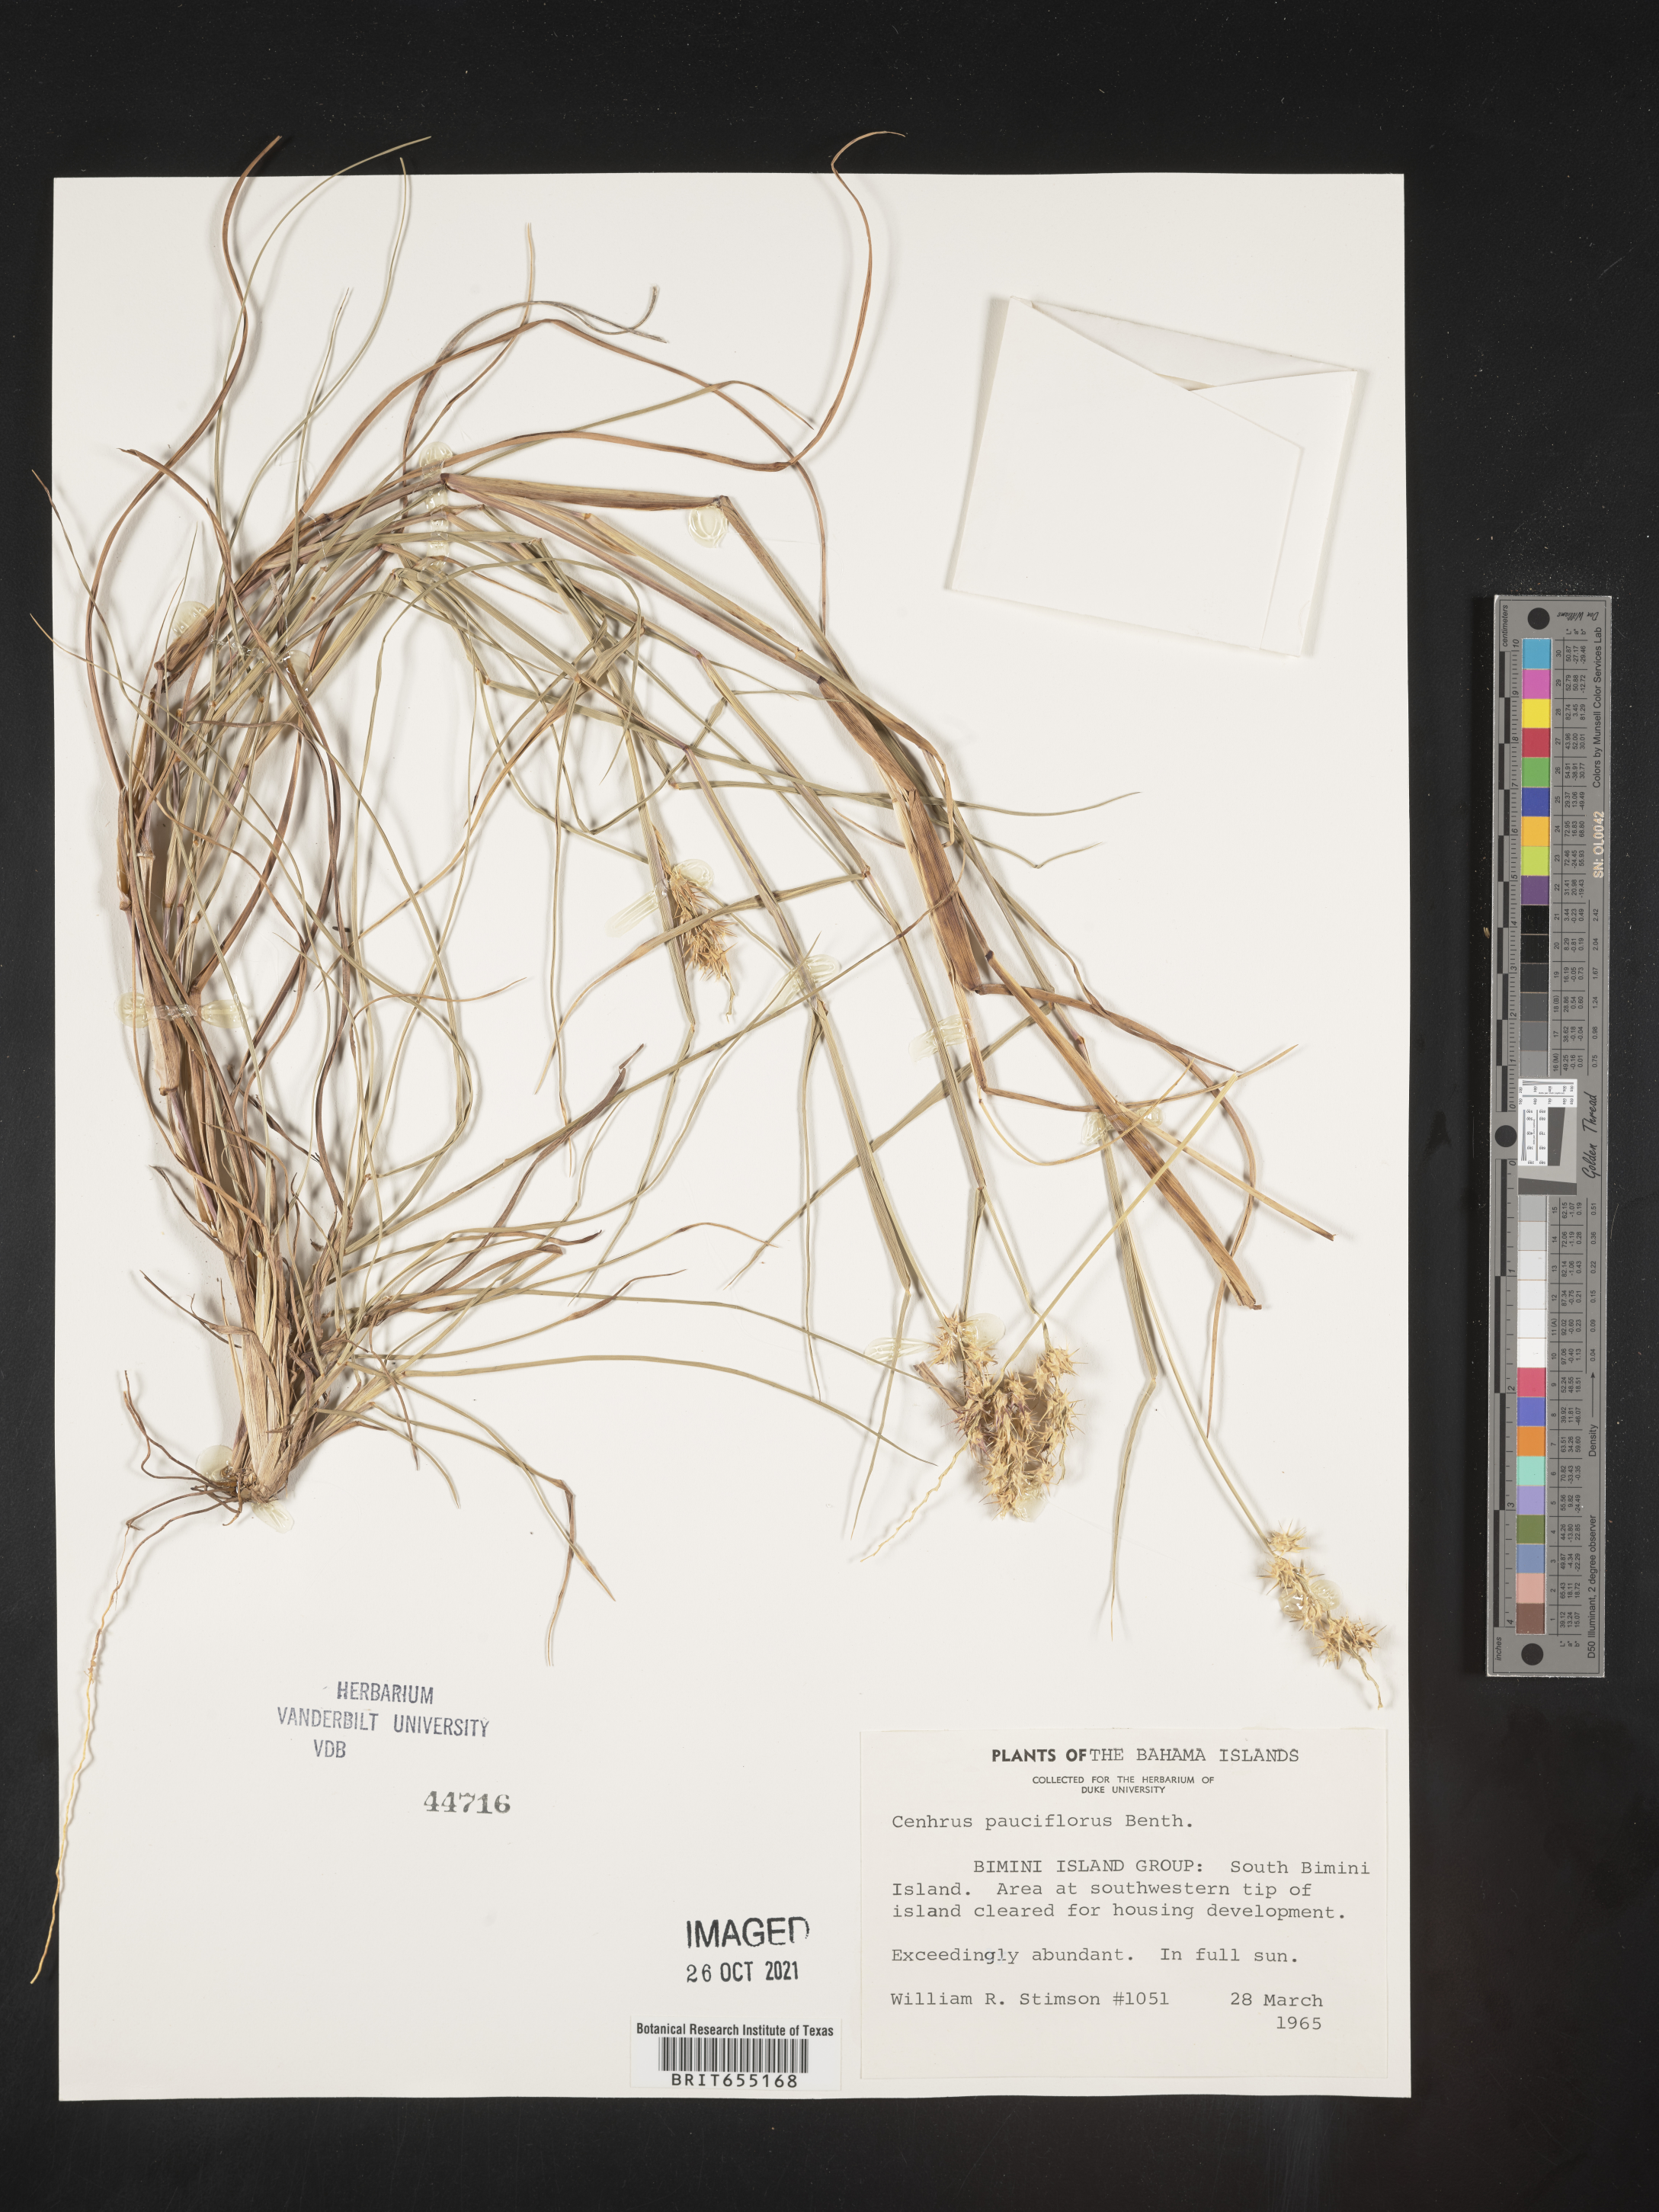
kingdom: Plantae
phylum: Tracheophyta
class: Liliopsida
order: Poales
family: Poaceae
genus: Cenchrus
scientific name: Cenchrus
